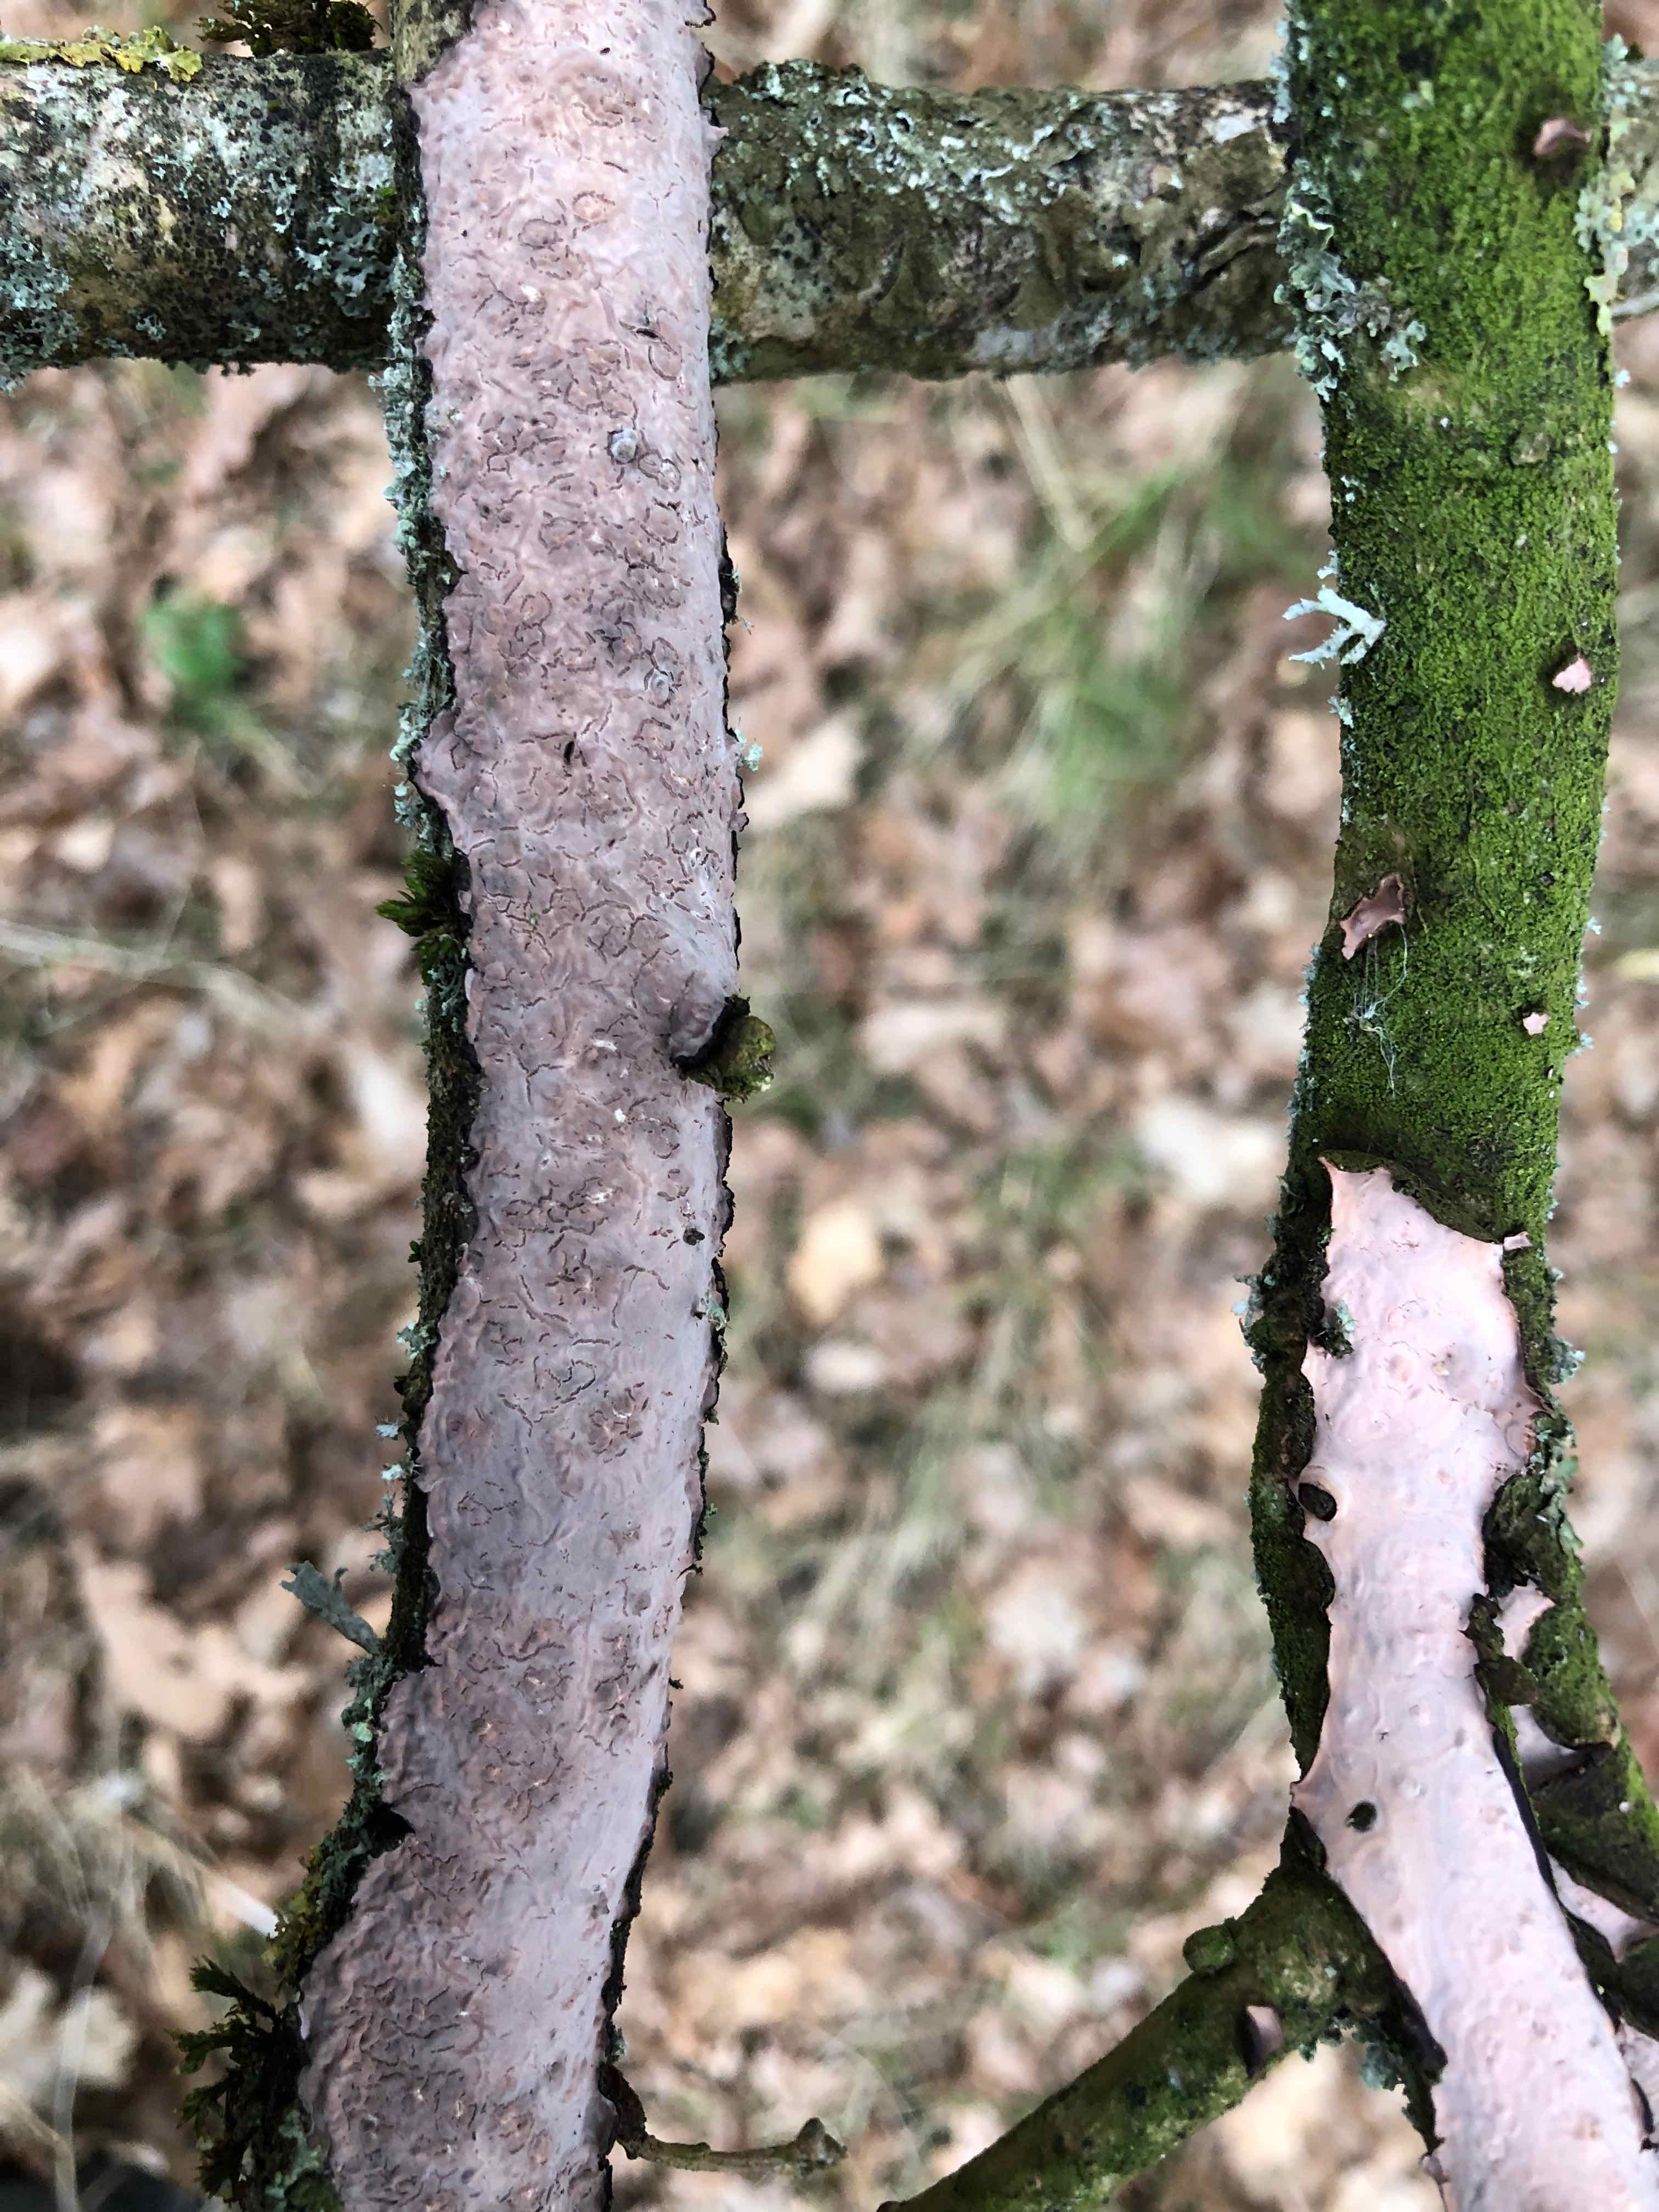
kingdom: Fungi
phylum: Basidiomycota
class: Agaricomycetes
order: Russulales
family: Peniophoraceae
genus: Peniophora
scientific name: Peniophora quercina
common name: ege-voksskind
